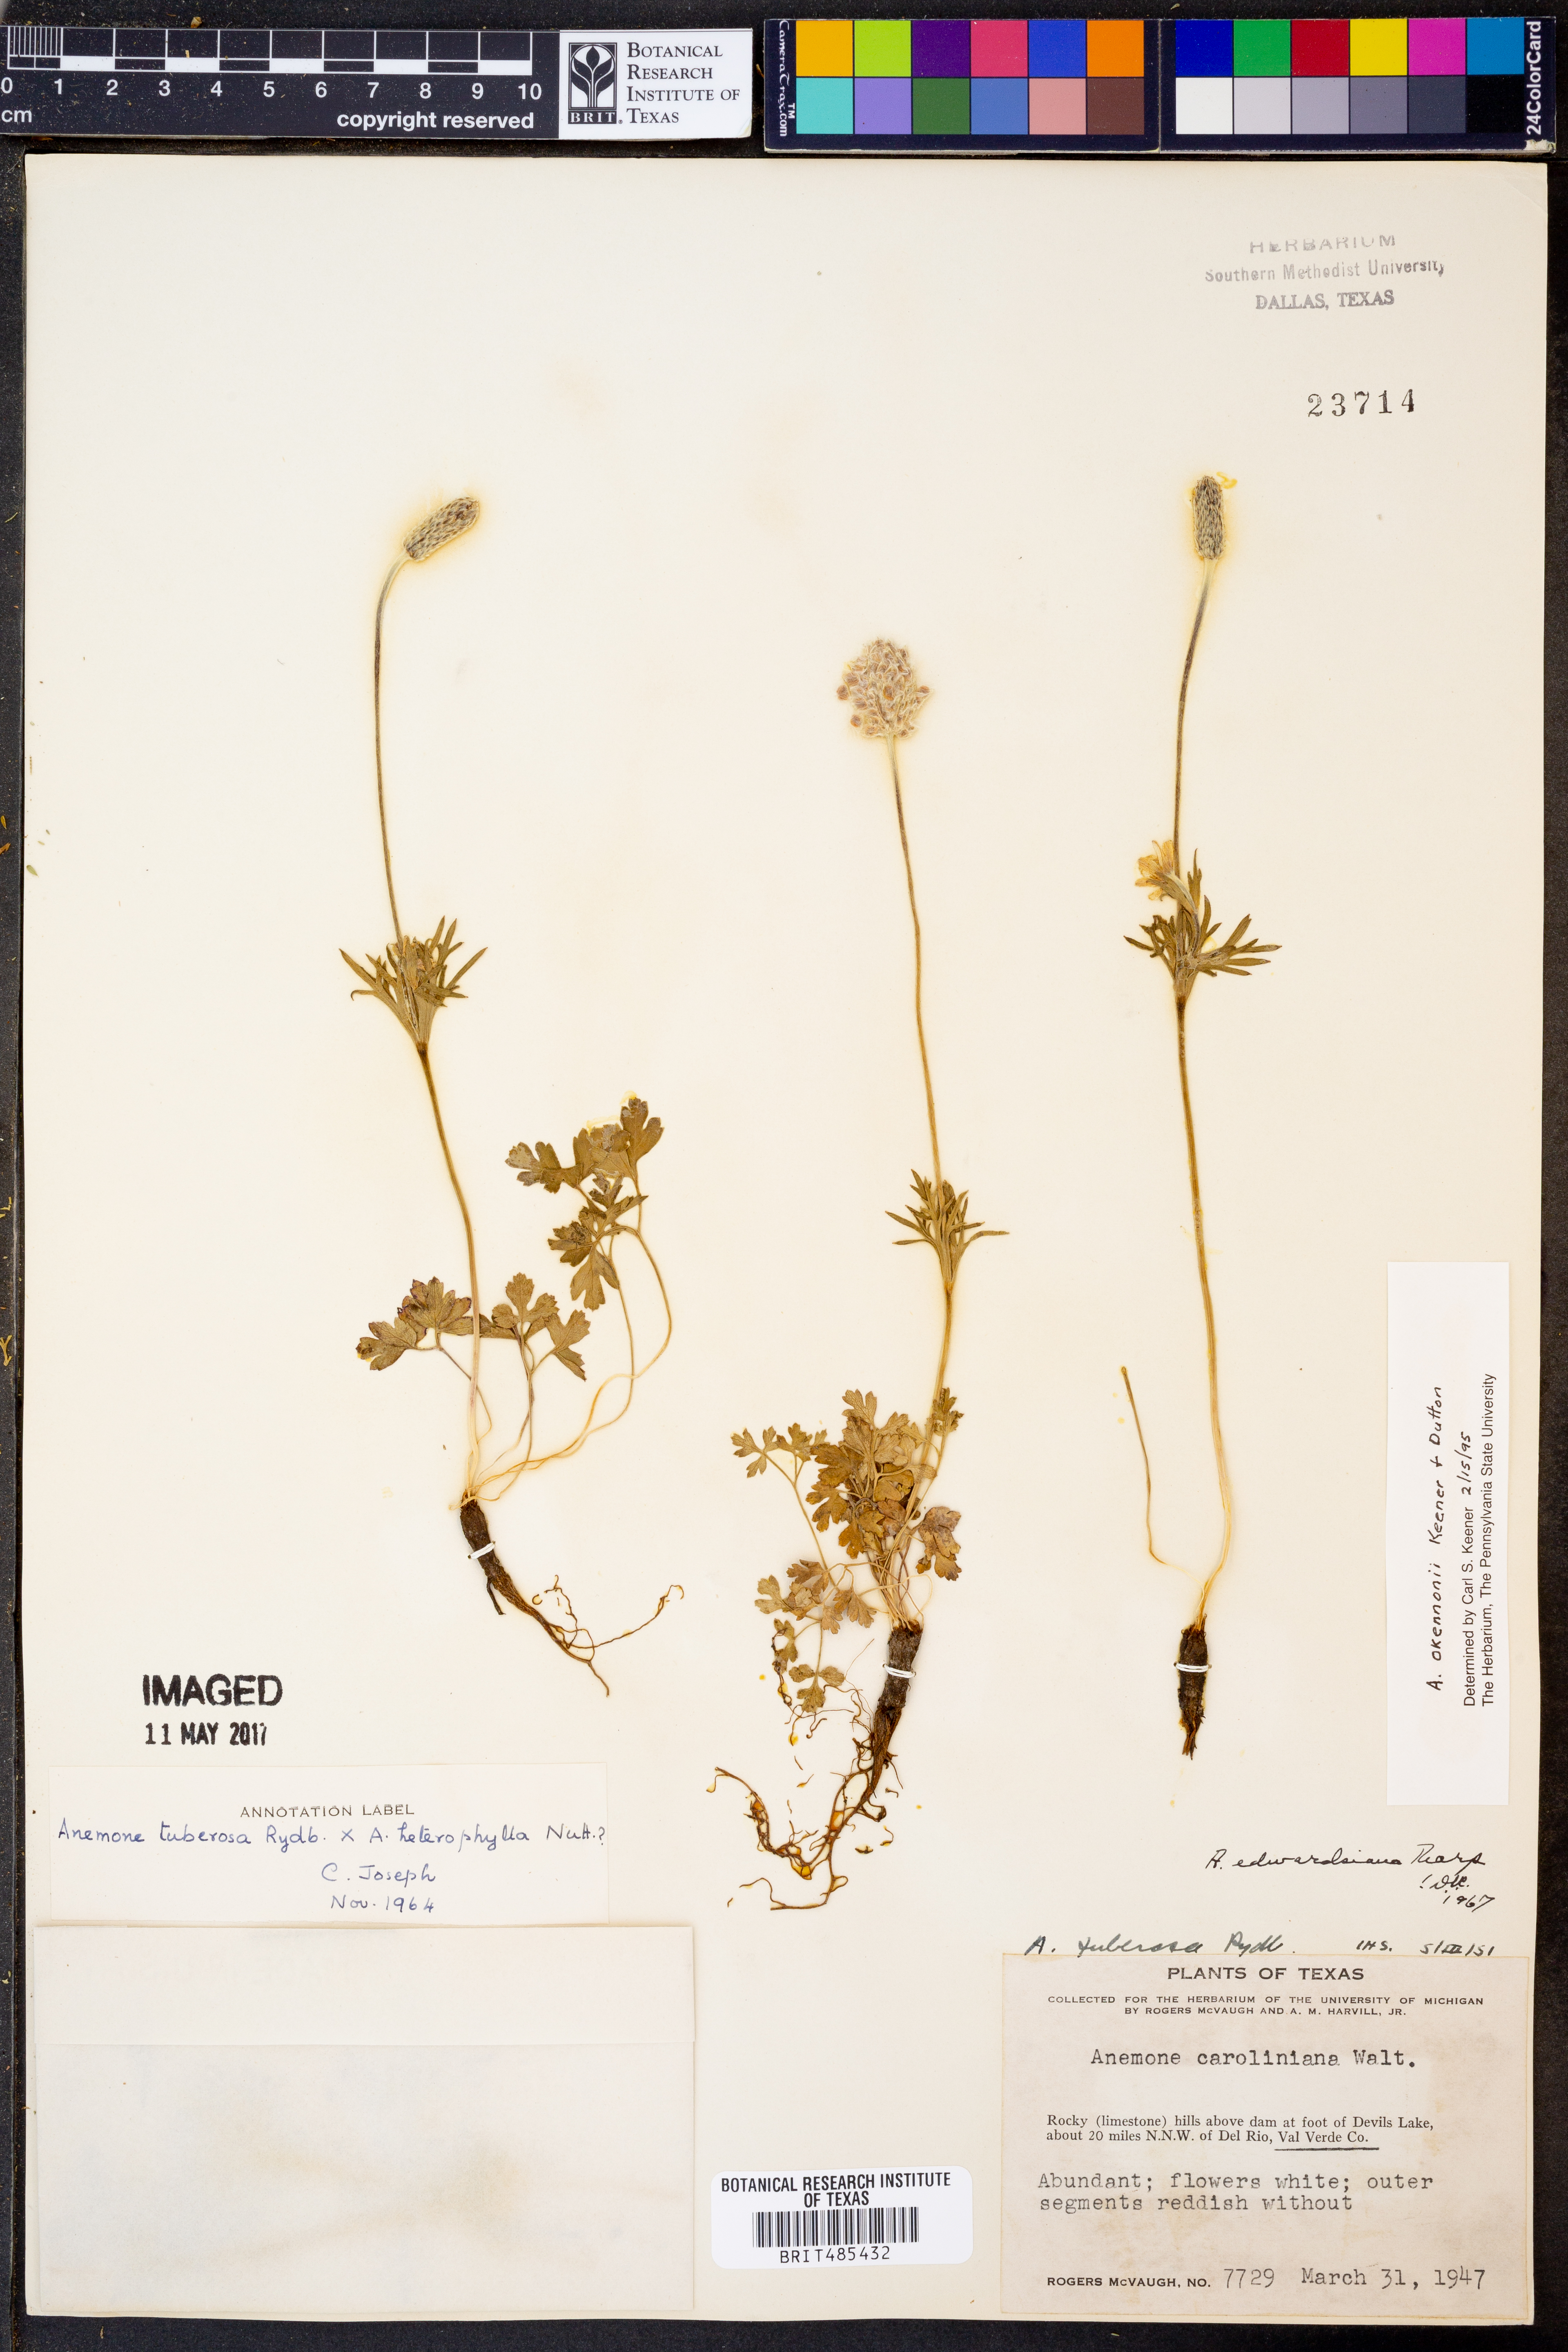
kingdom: Plantae
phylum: Tracheophyta
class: Magnoliopsida
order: Ranunculales
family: Ranunculaceae
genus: Anemone
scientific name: Anemone tuberosa
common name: Desert anemone
